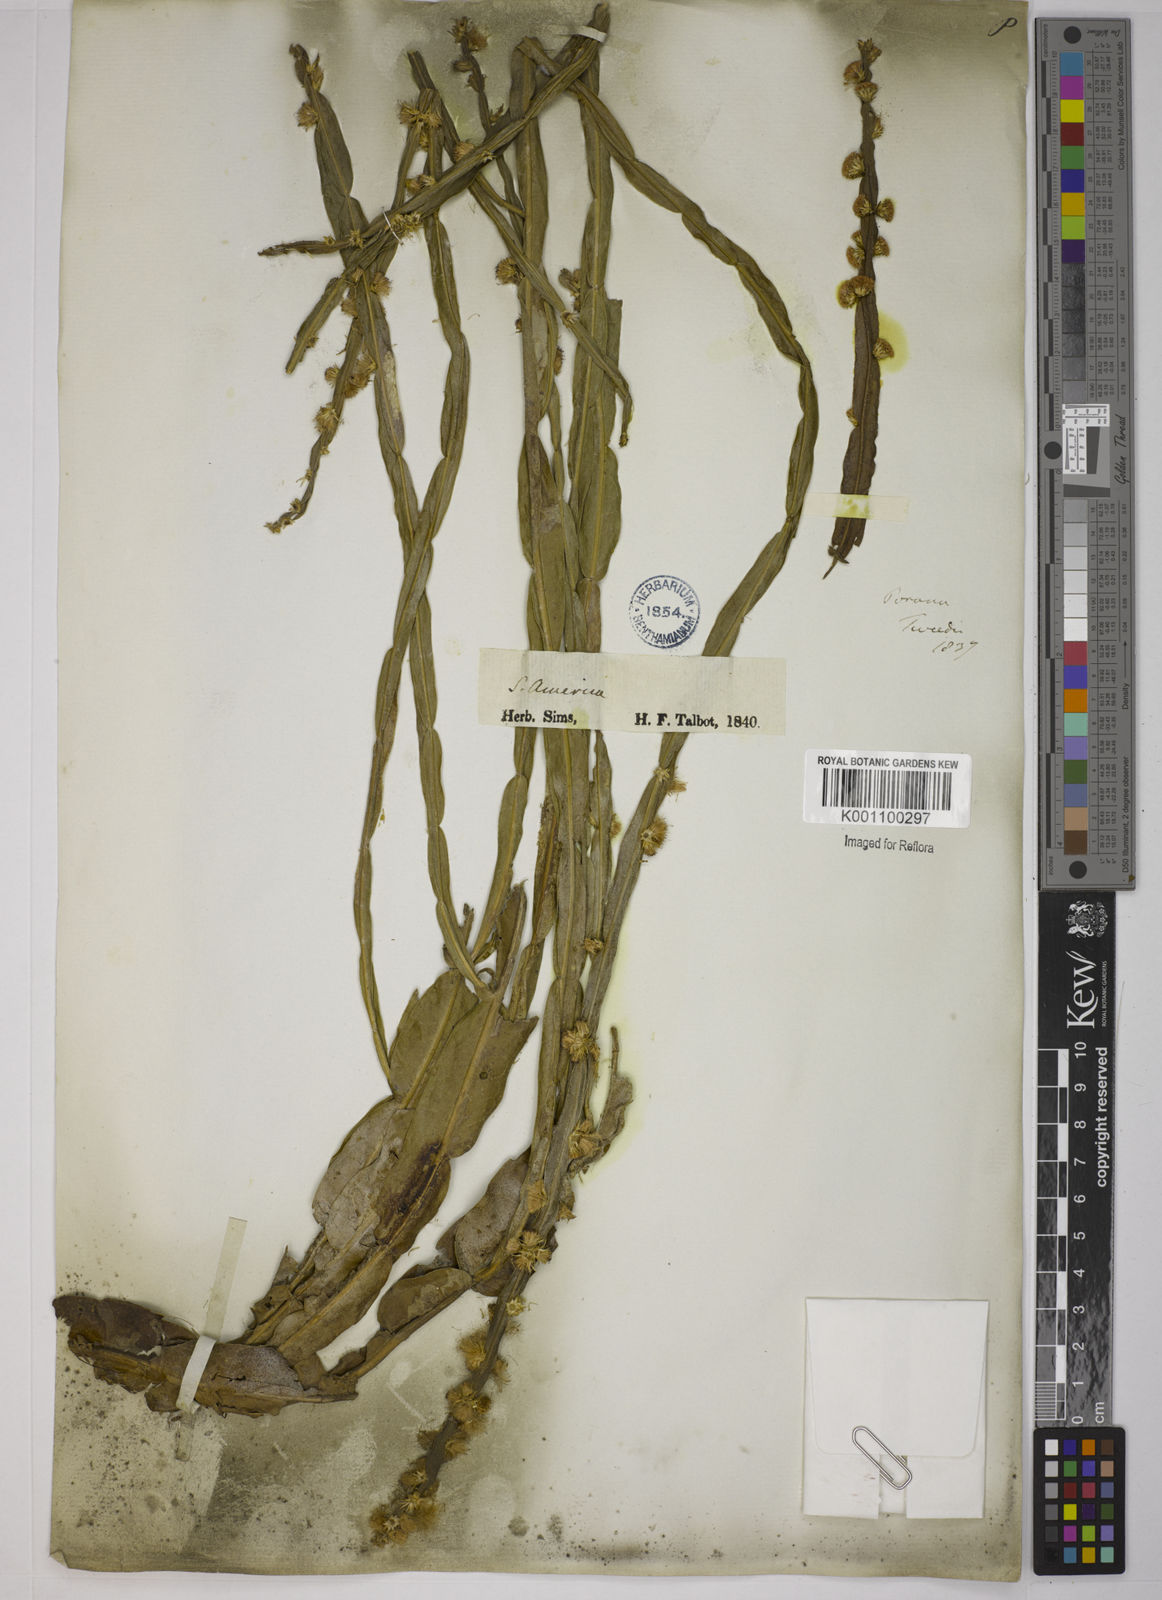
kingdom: Plantae
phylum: Tracheophyta
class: Magnoliopsida
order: Asterales
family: Asteraceae
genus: Baccharis
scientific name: Baccharis trimera
